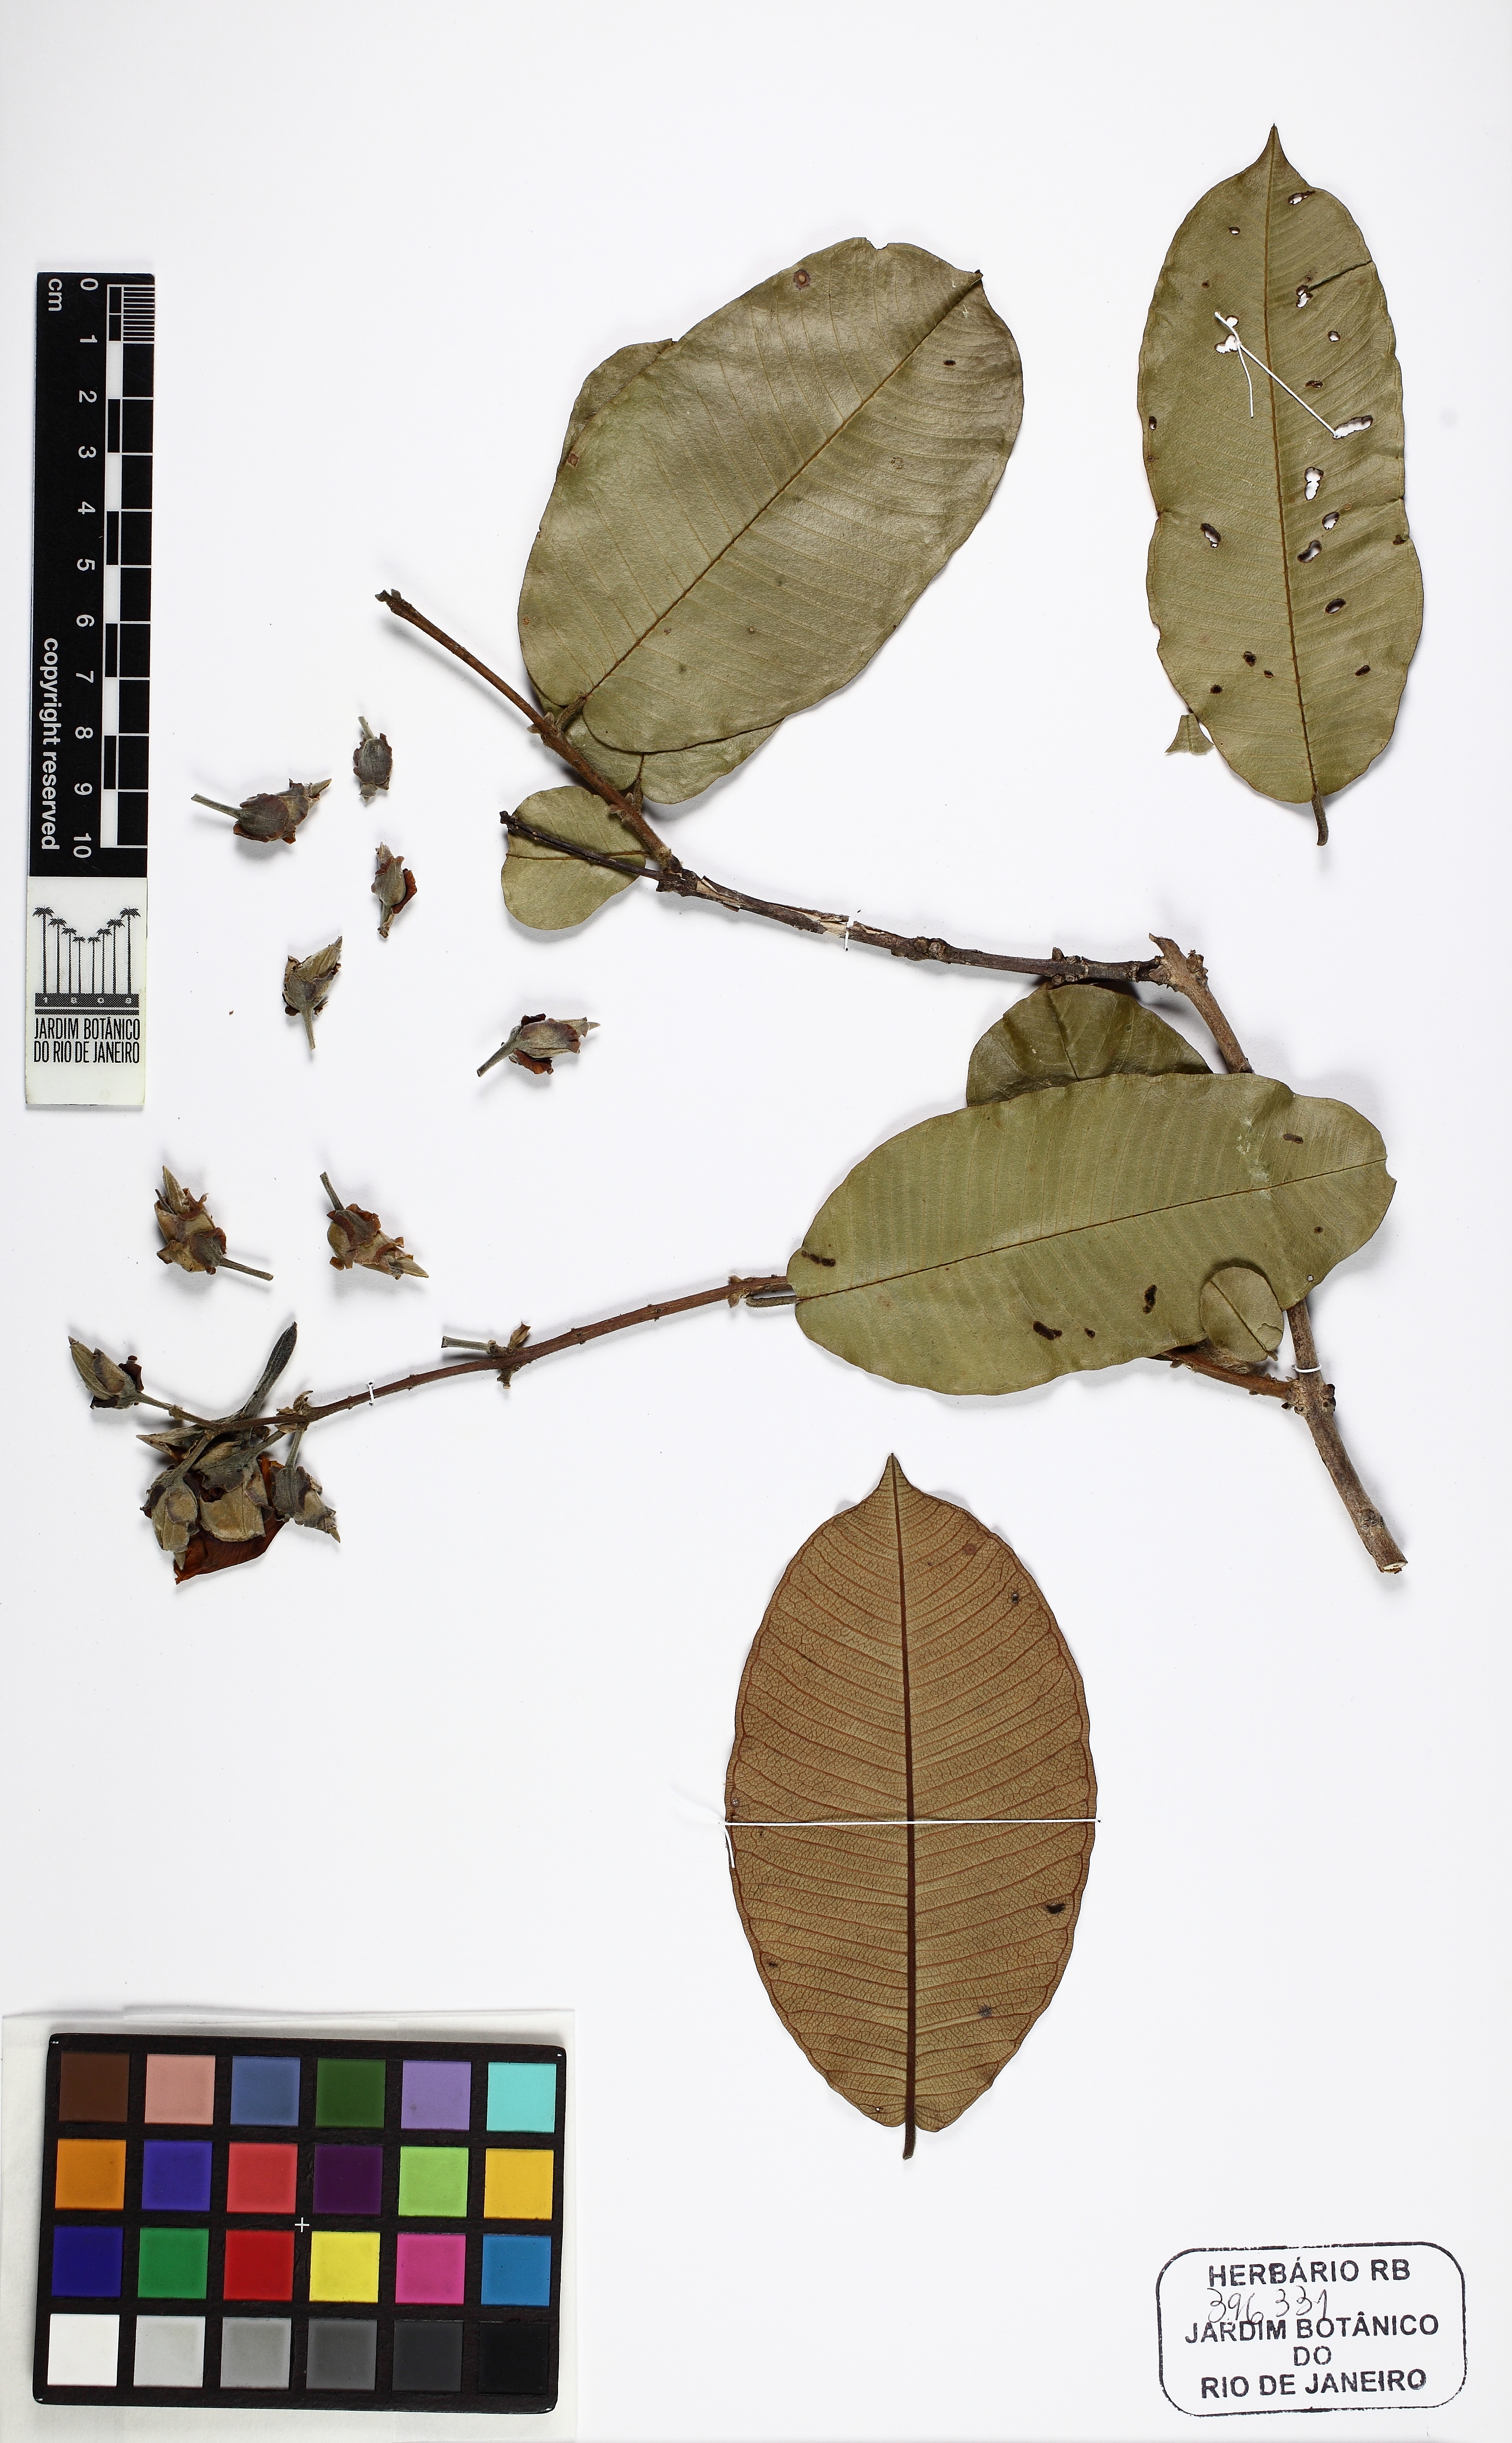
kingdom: Plantae
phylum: Tracheophyta
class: Magnoliopsida
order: Myrtales
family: Vochysiaceae
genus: Qualea
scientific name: Qualea grandiflora
